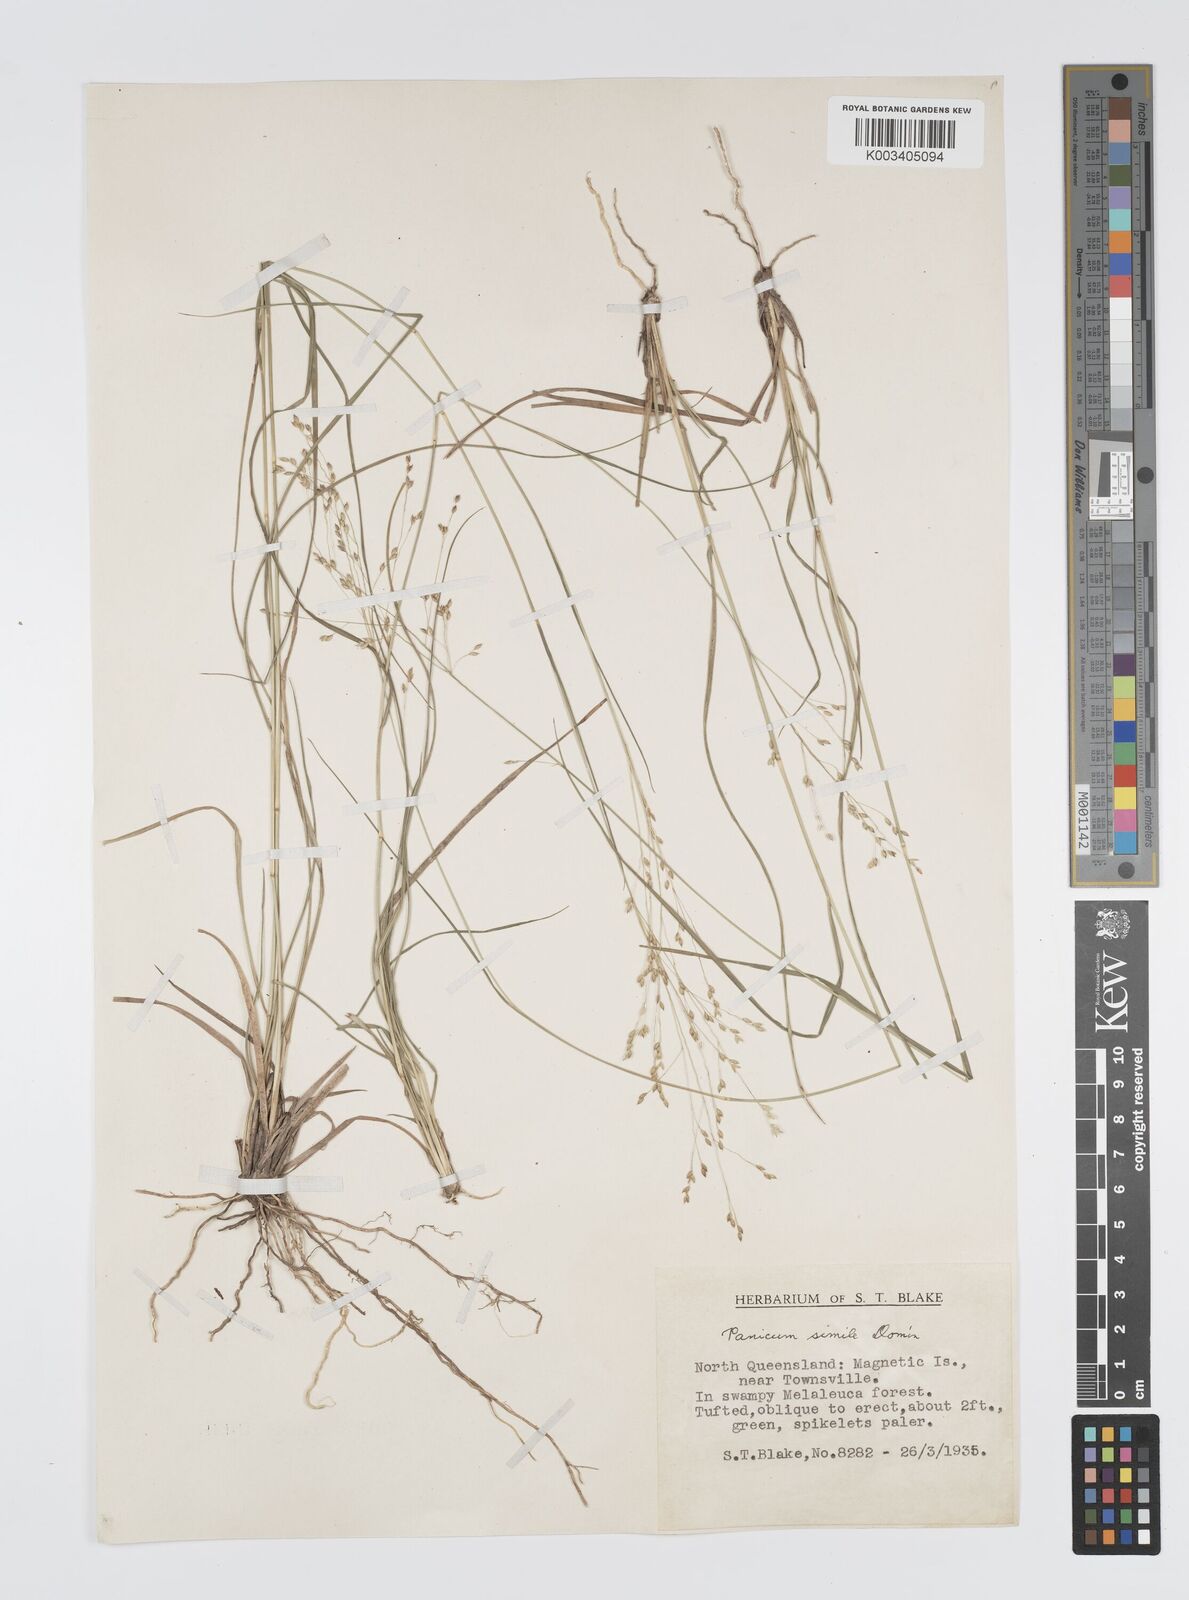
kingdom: Plantae
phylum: Tracheophyta
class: Liliopsida
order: Poales
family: Poaceae
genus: Panicum
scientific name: Panicum simile
